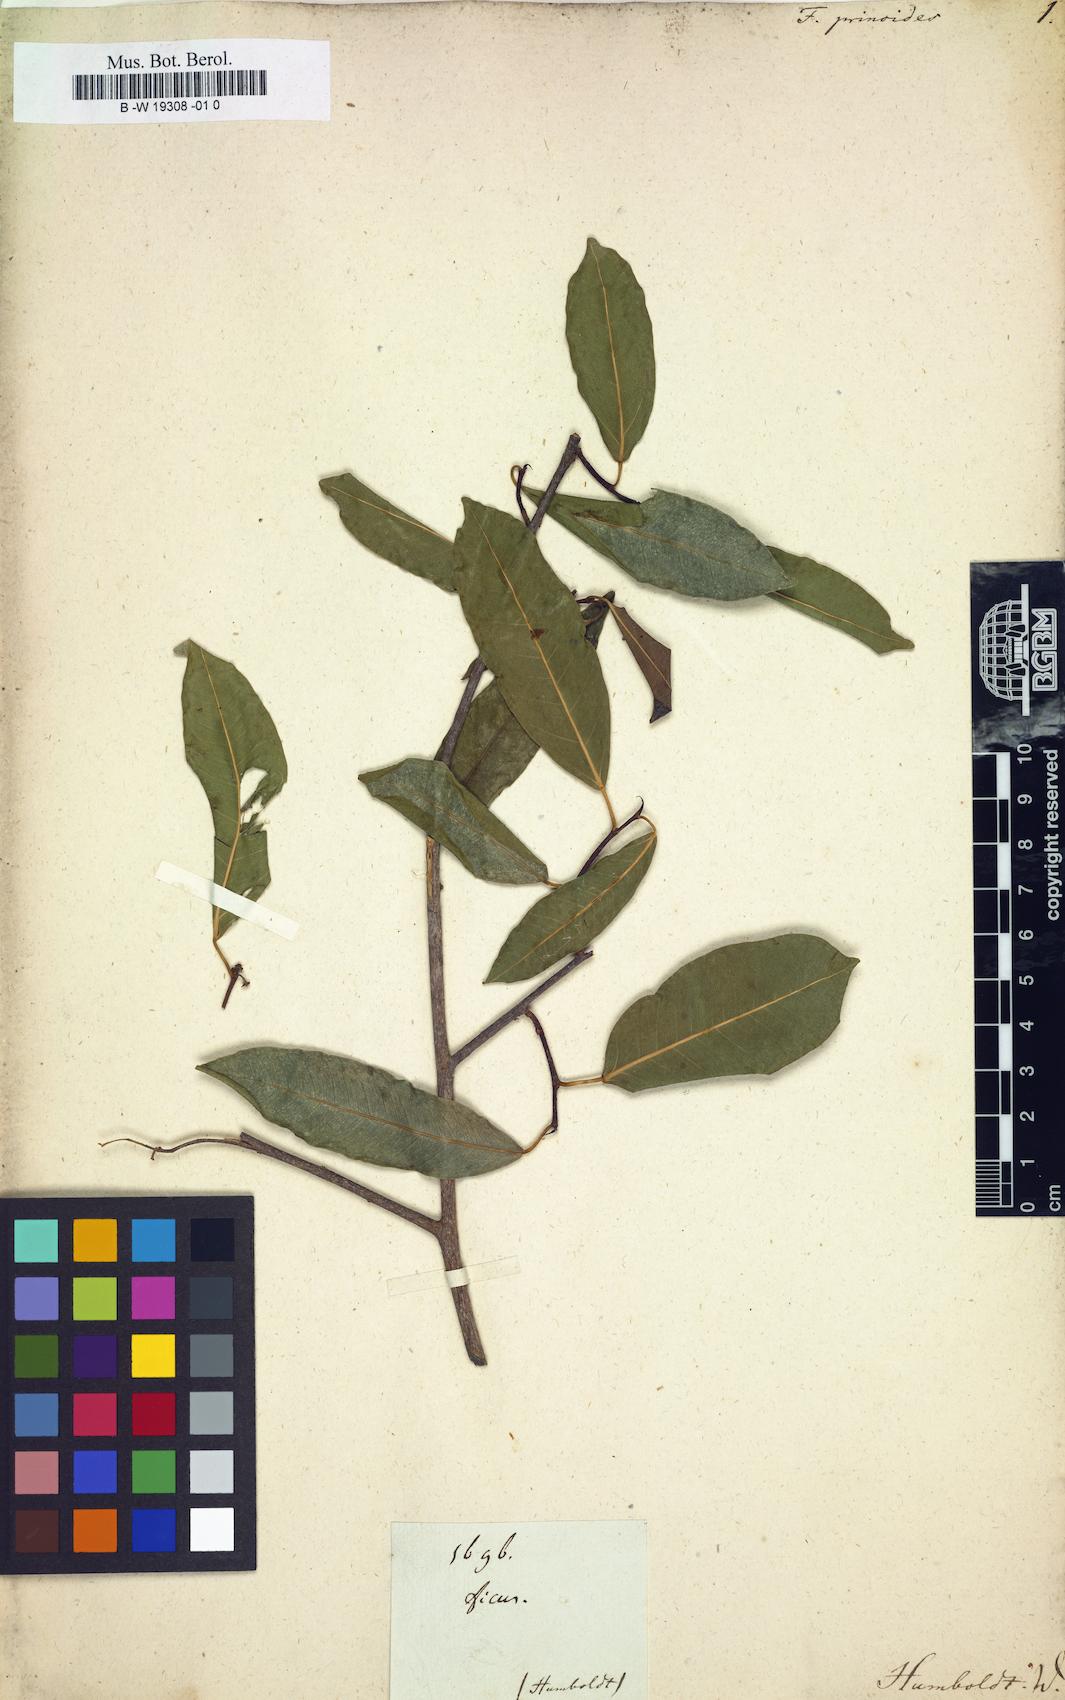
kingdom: Plantae
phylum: Tracheophyta
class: Magnoliopsida
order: Rosales
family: Moraceae
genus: Ficus
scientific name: Ficus pallida
